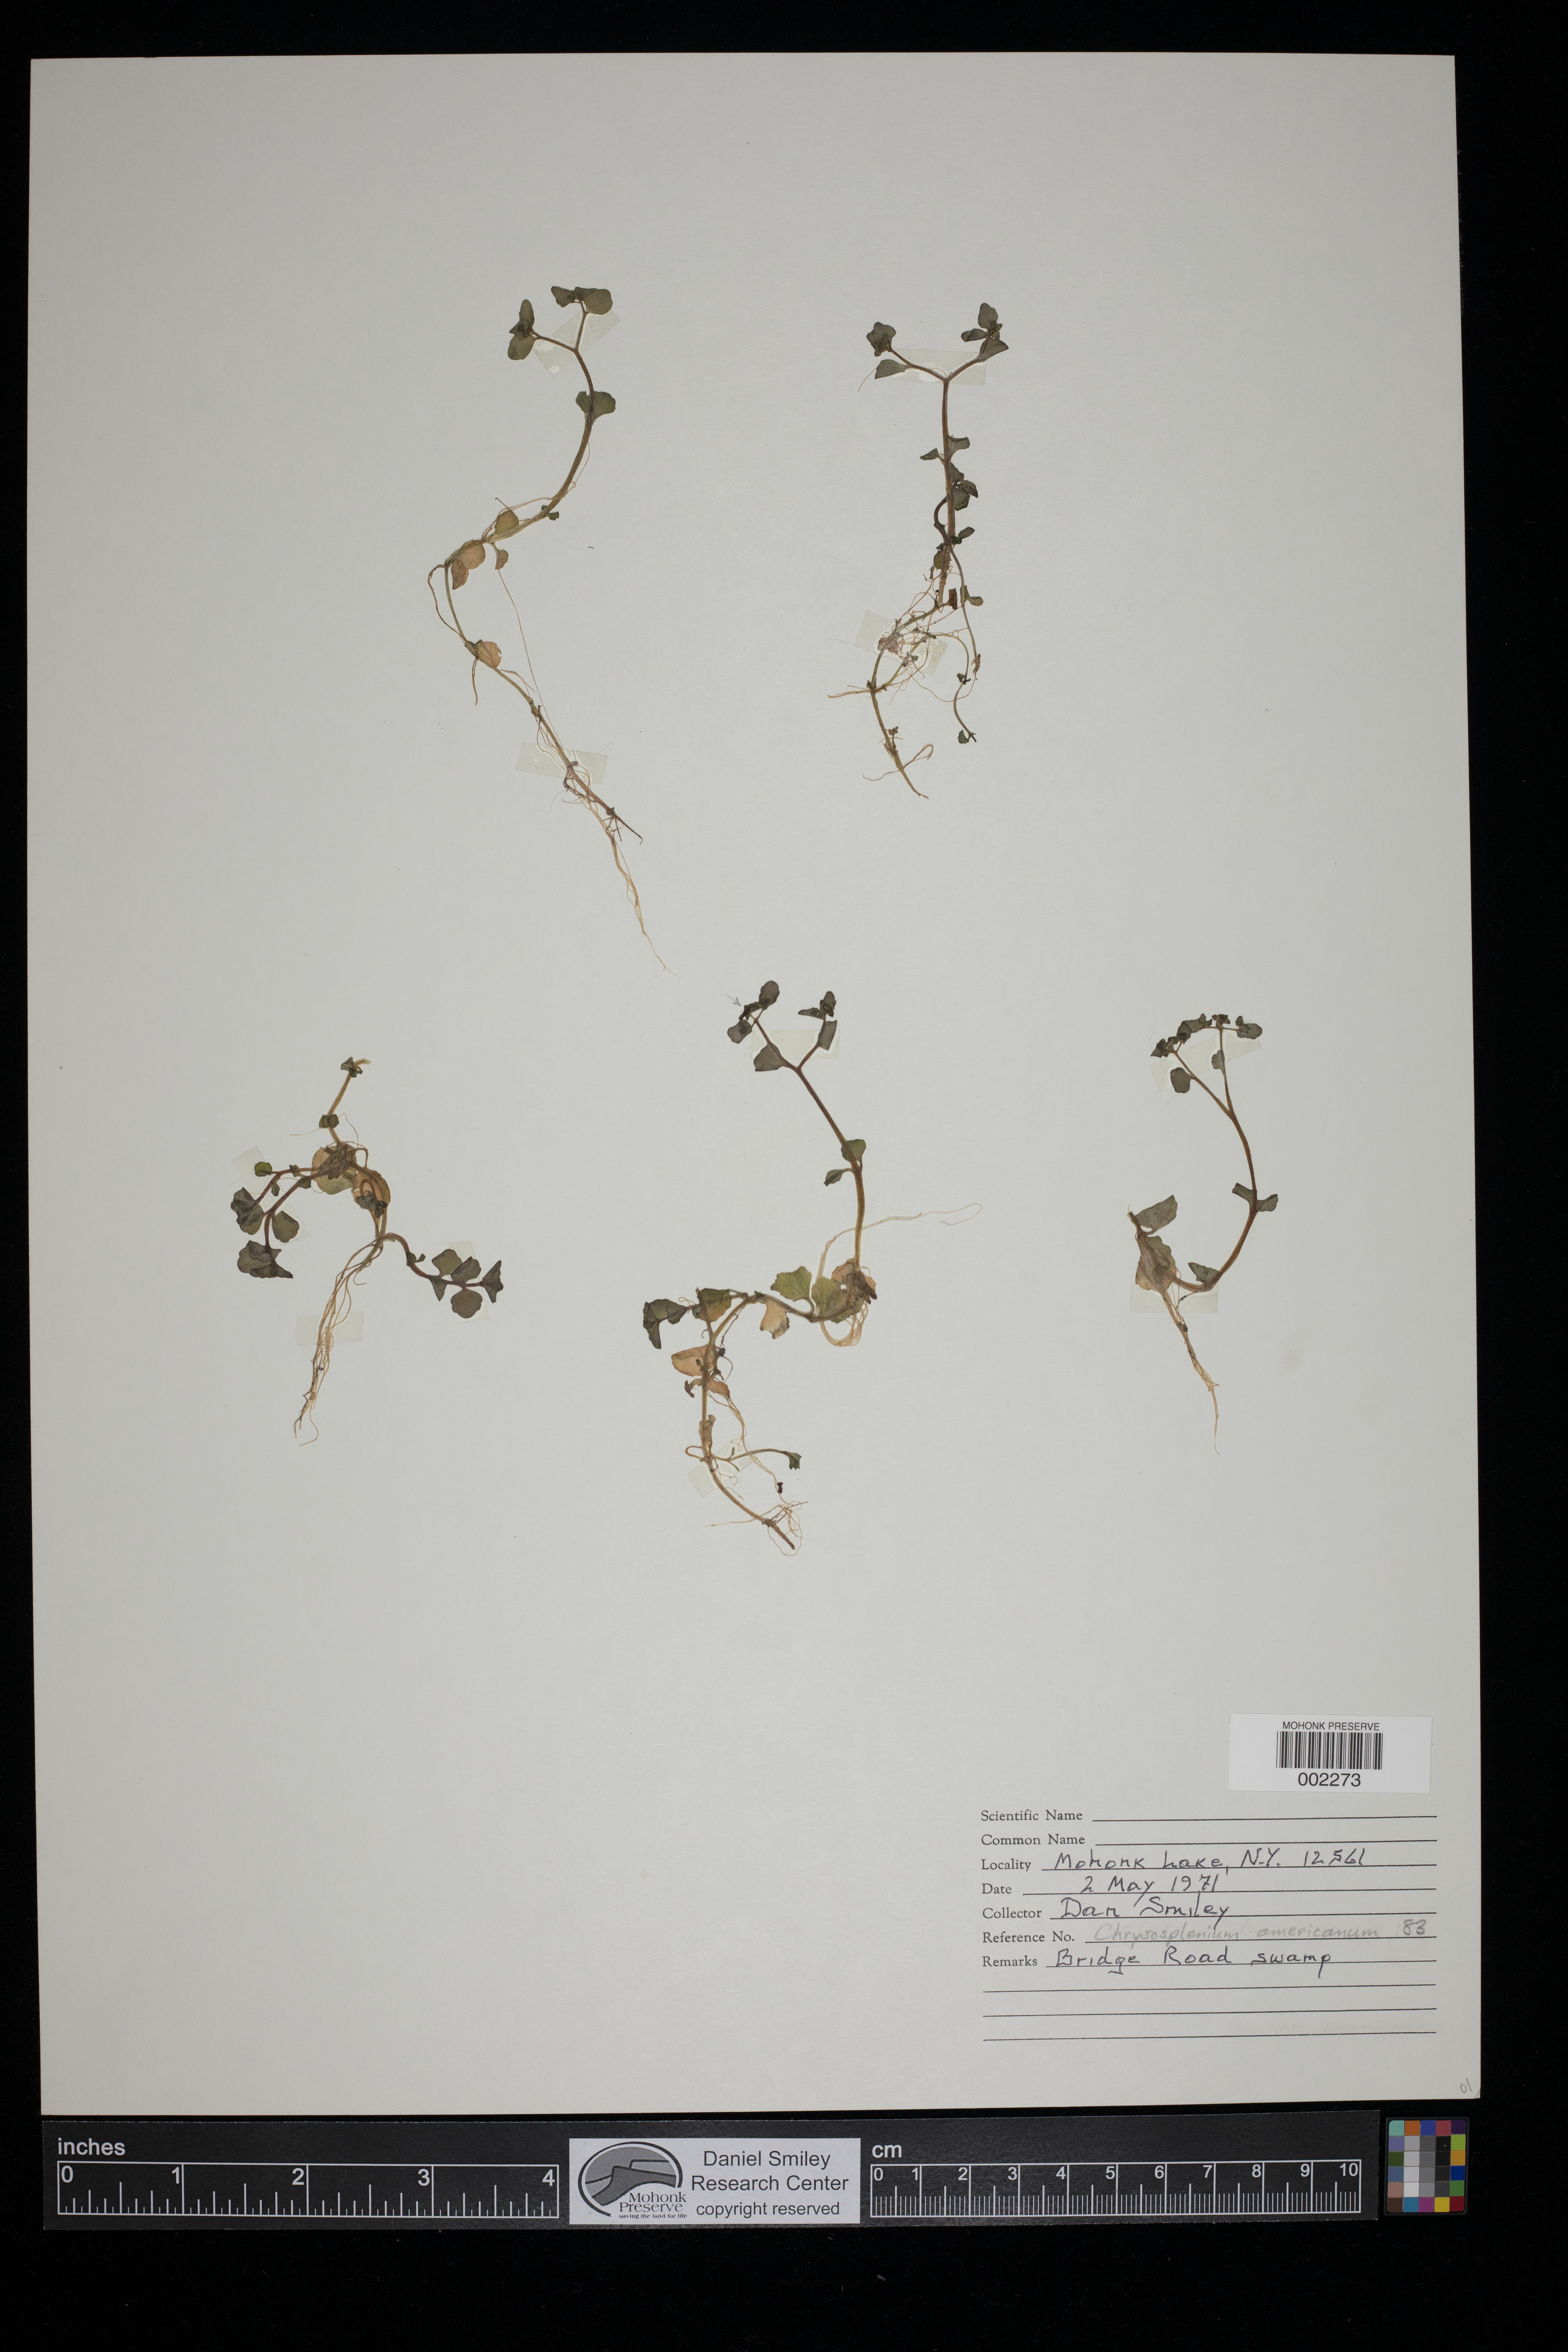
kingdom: Plantae
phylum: Tracheophyta
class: Magnoliopsida
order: Saxifragales
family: Saxifragaceae
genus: Chrysosplenium
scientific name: Chrysosplenium americanum
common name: American golden-saxifrage
